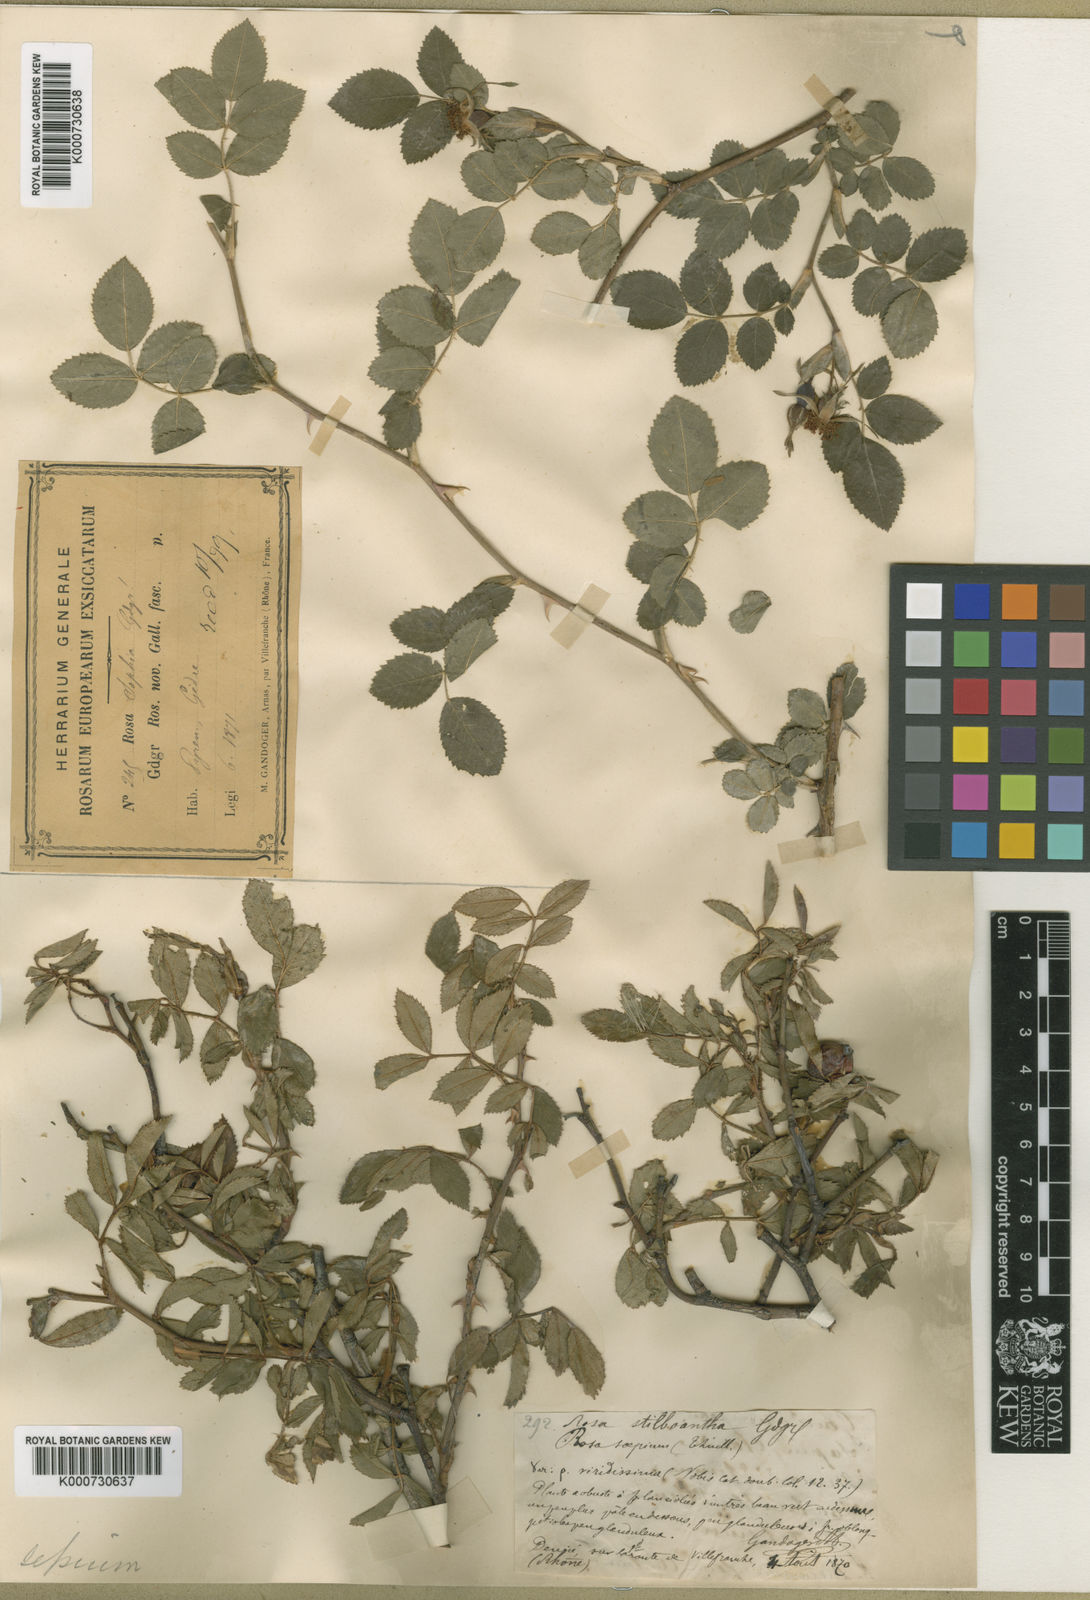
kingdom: Plantae
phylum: Tracheophyta
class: Magnoliopsida
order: Rosales
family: Rosaceae
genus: Rosa
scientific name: Rosa agrestis
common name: Fieldbriar
